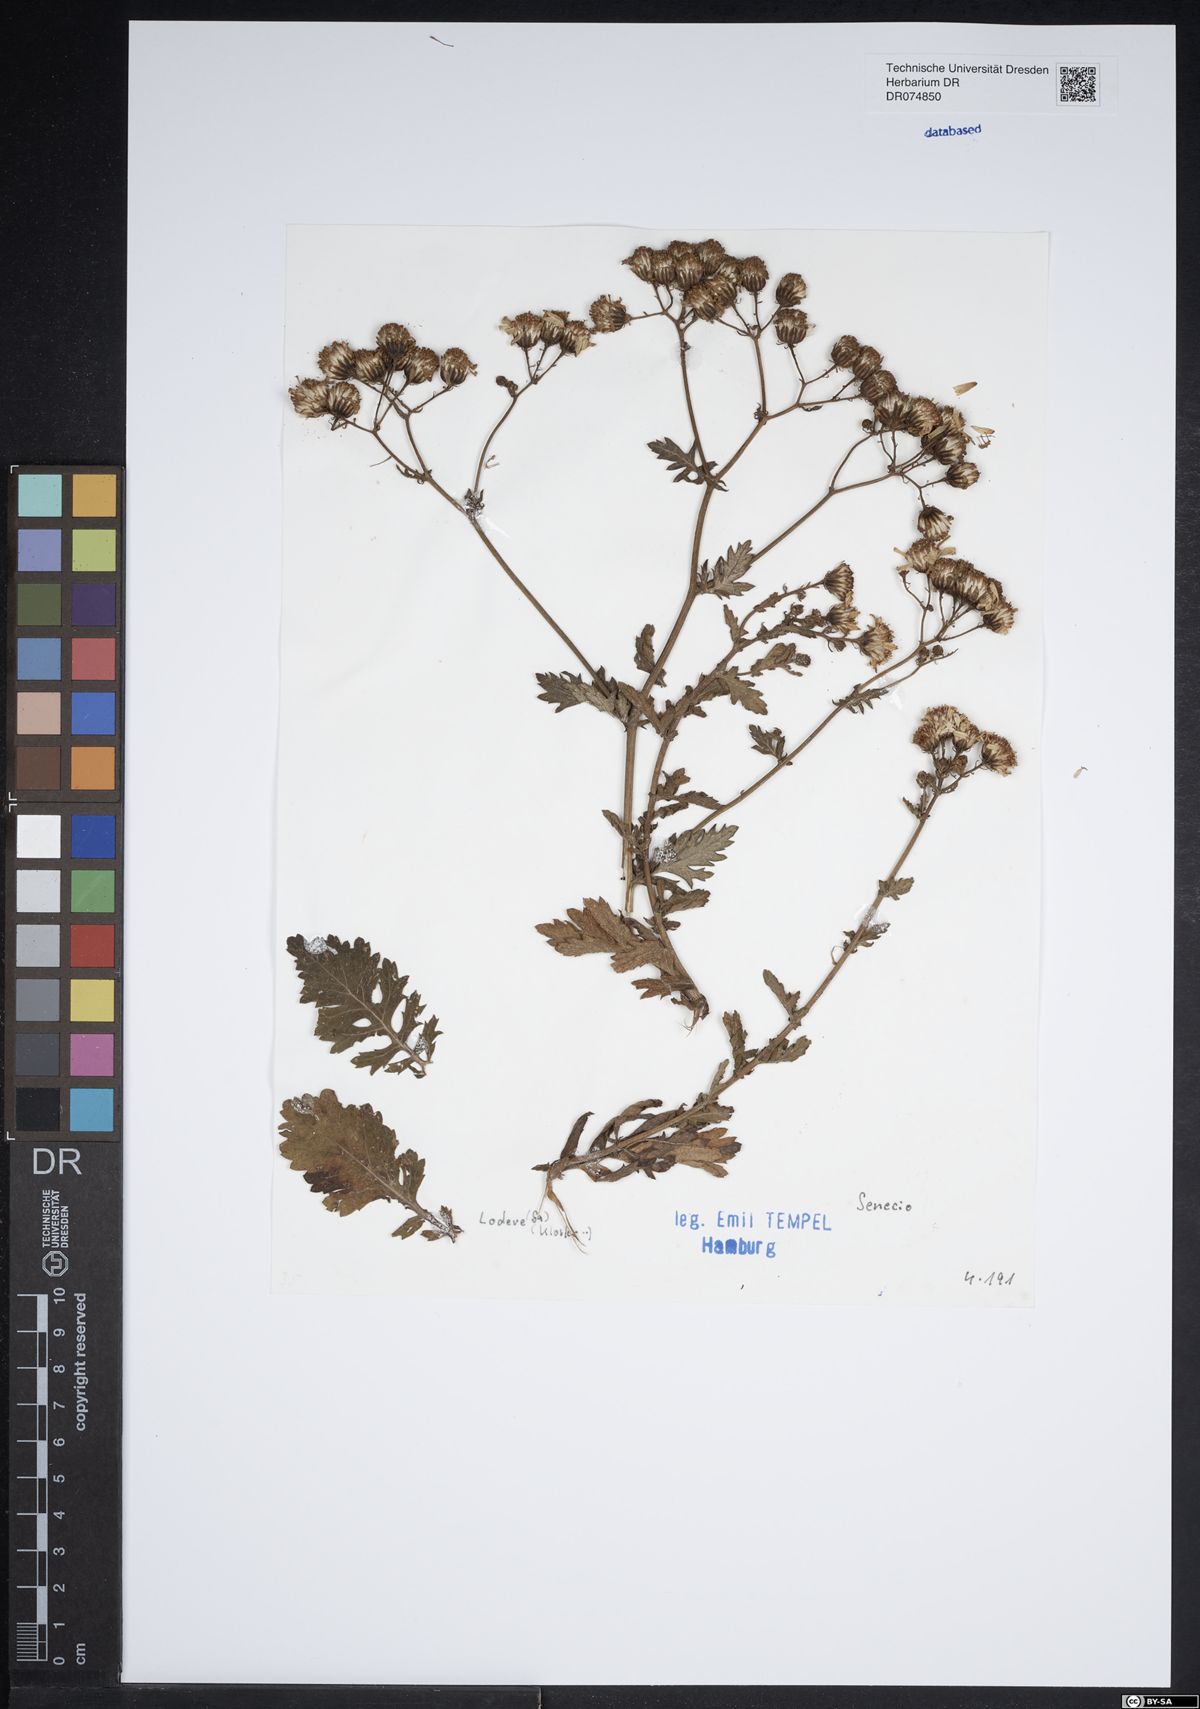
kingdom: Plantae
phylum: Tracheophyta
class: Magnoliopsida
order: Asterales
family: Asteraceae
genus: Senecio
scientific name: Senecio
